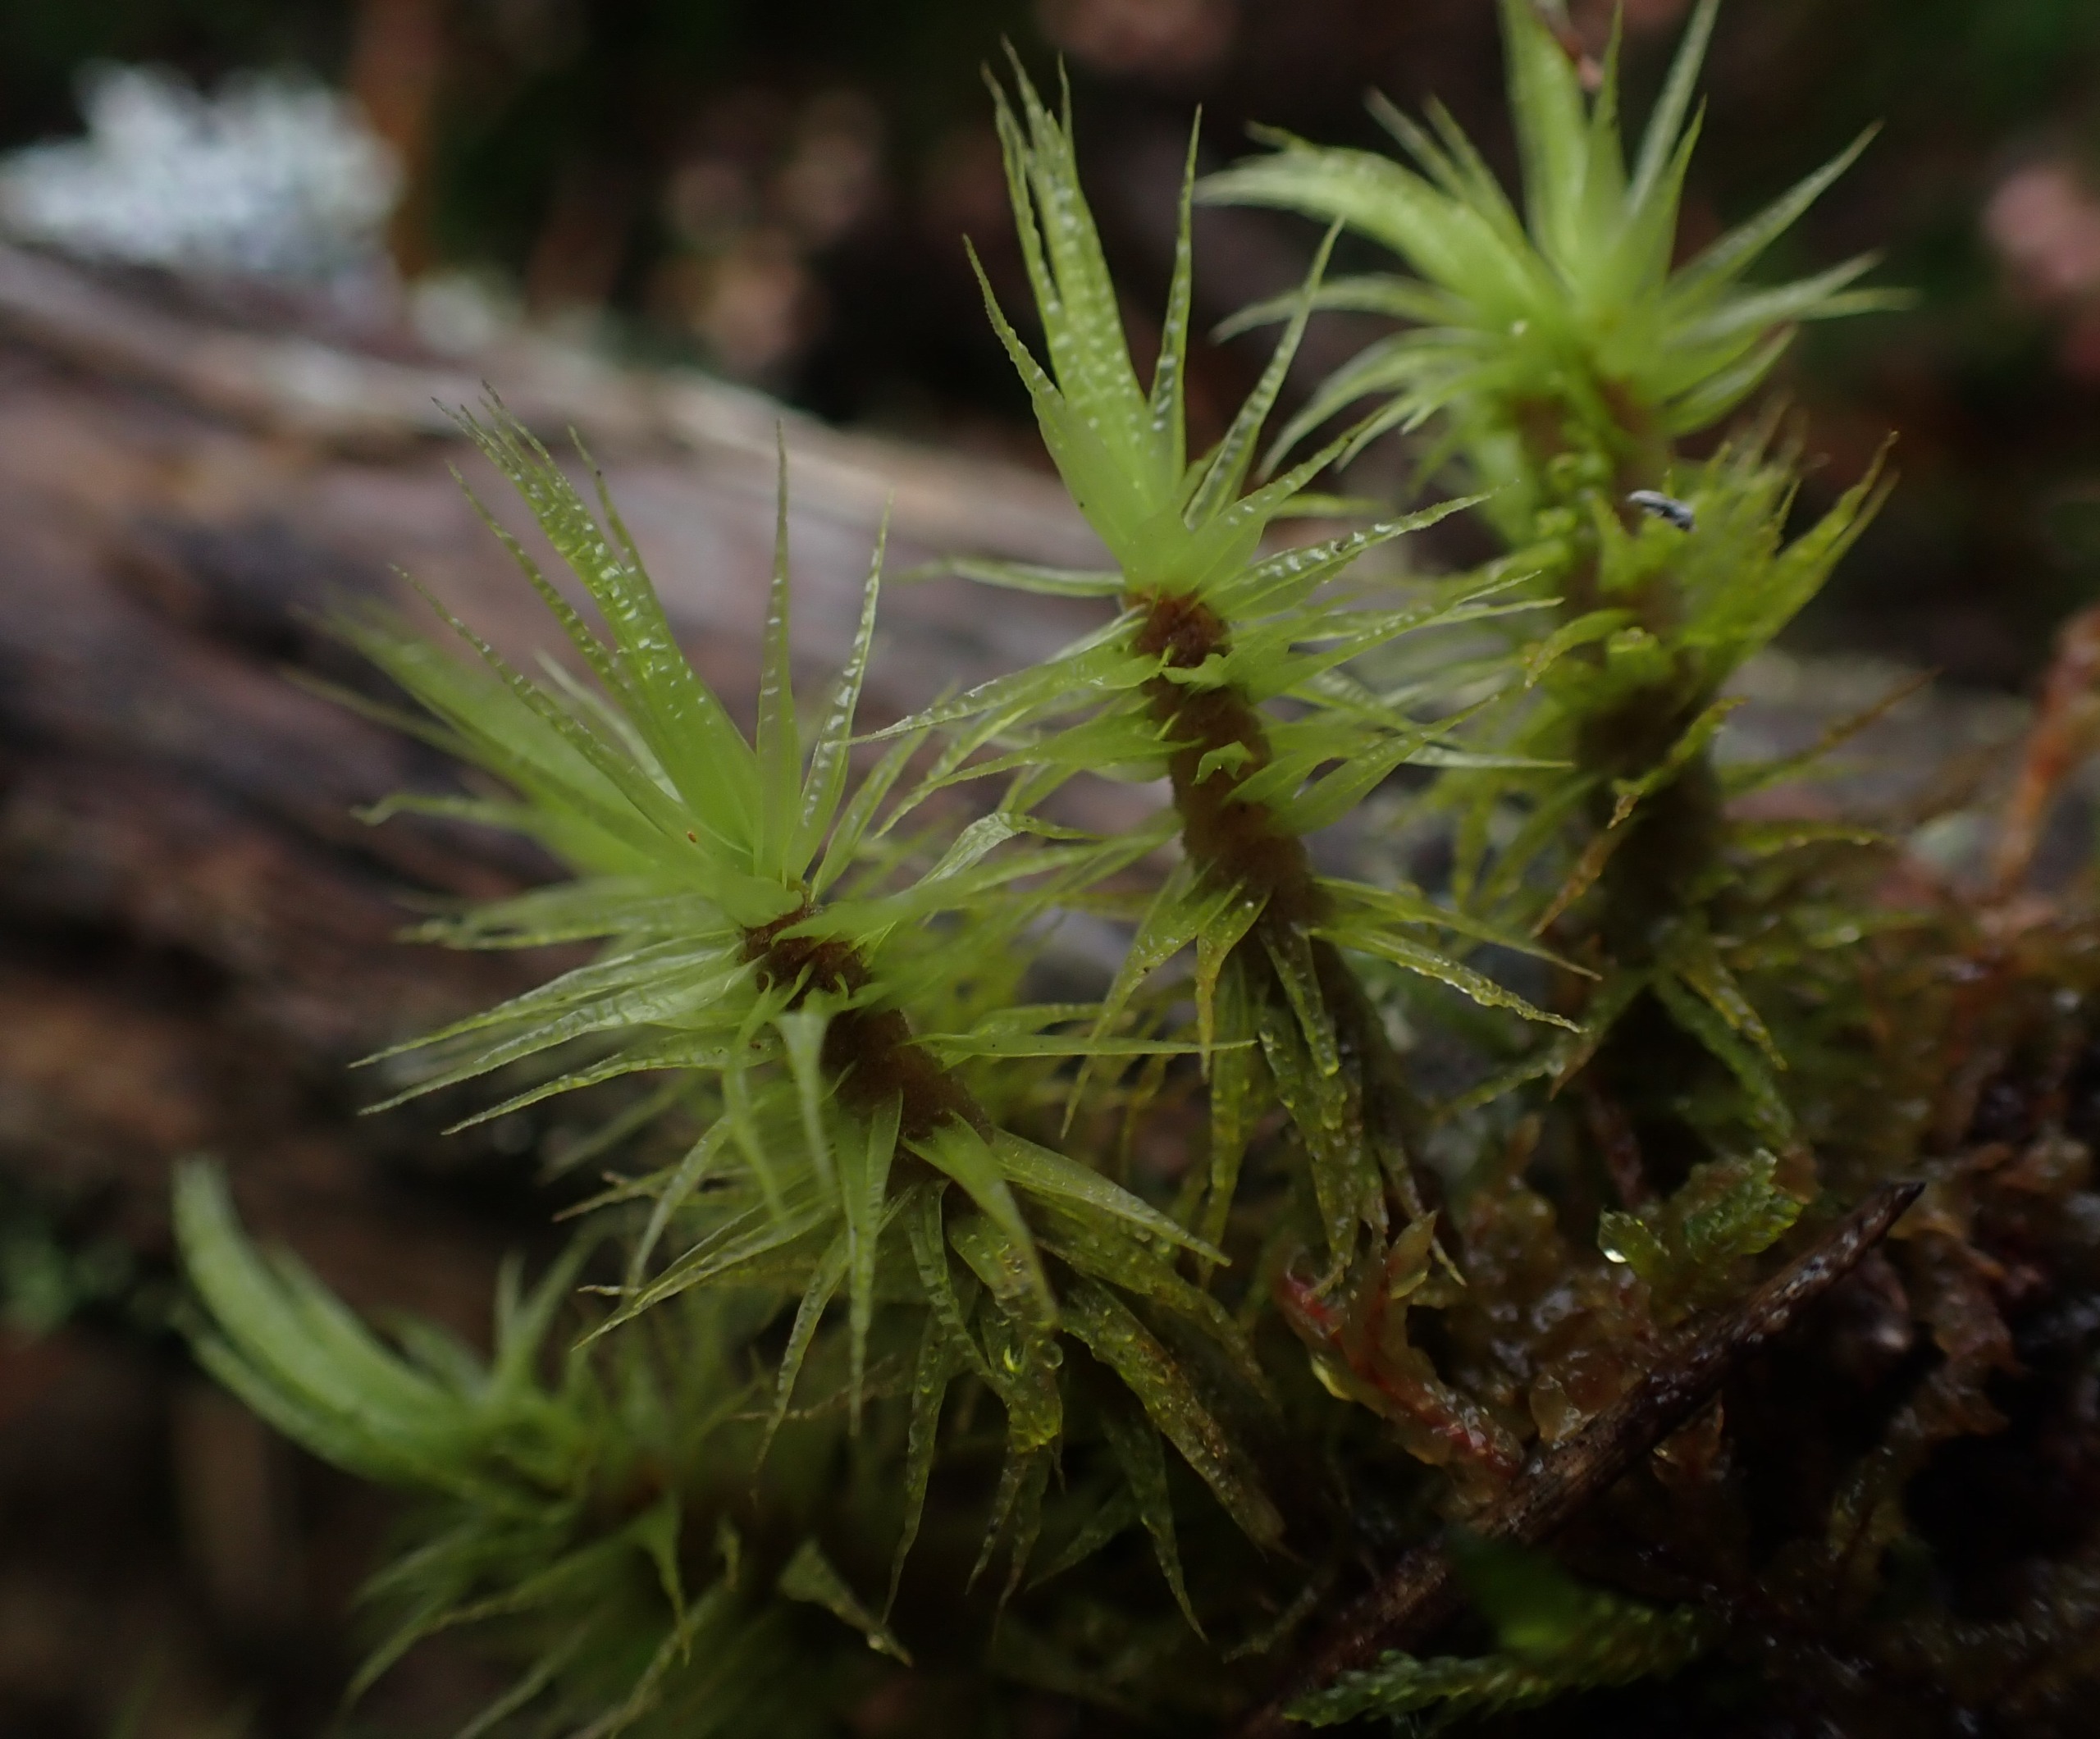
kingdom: Plantae
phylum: Bryophyta
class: Bryopsida
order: Dicranales
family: Dicranaceae
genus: Dicranum
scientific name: Dicranum polysetum
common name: Bølgebladet kløvtand
